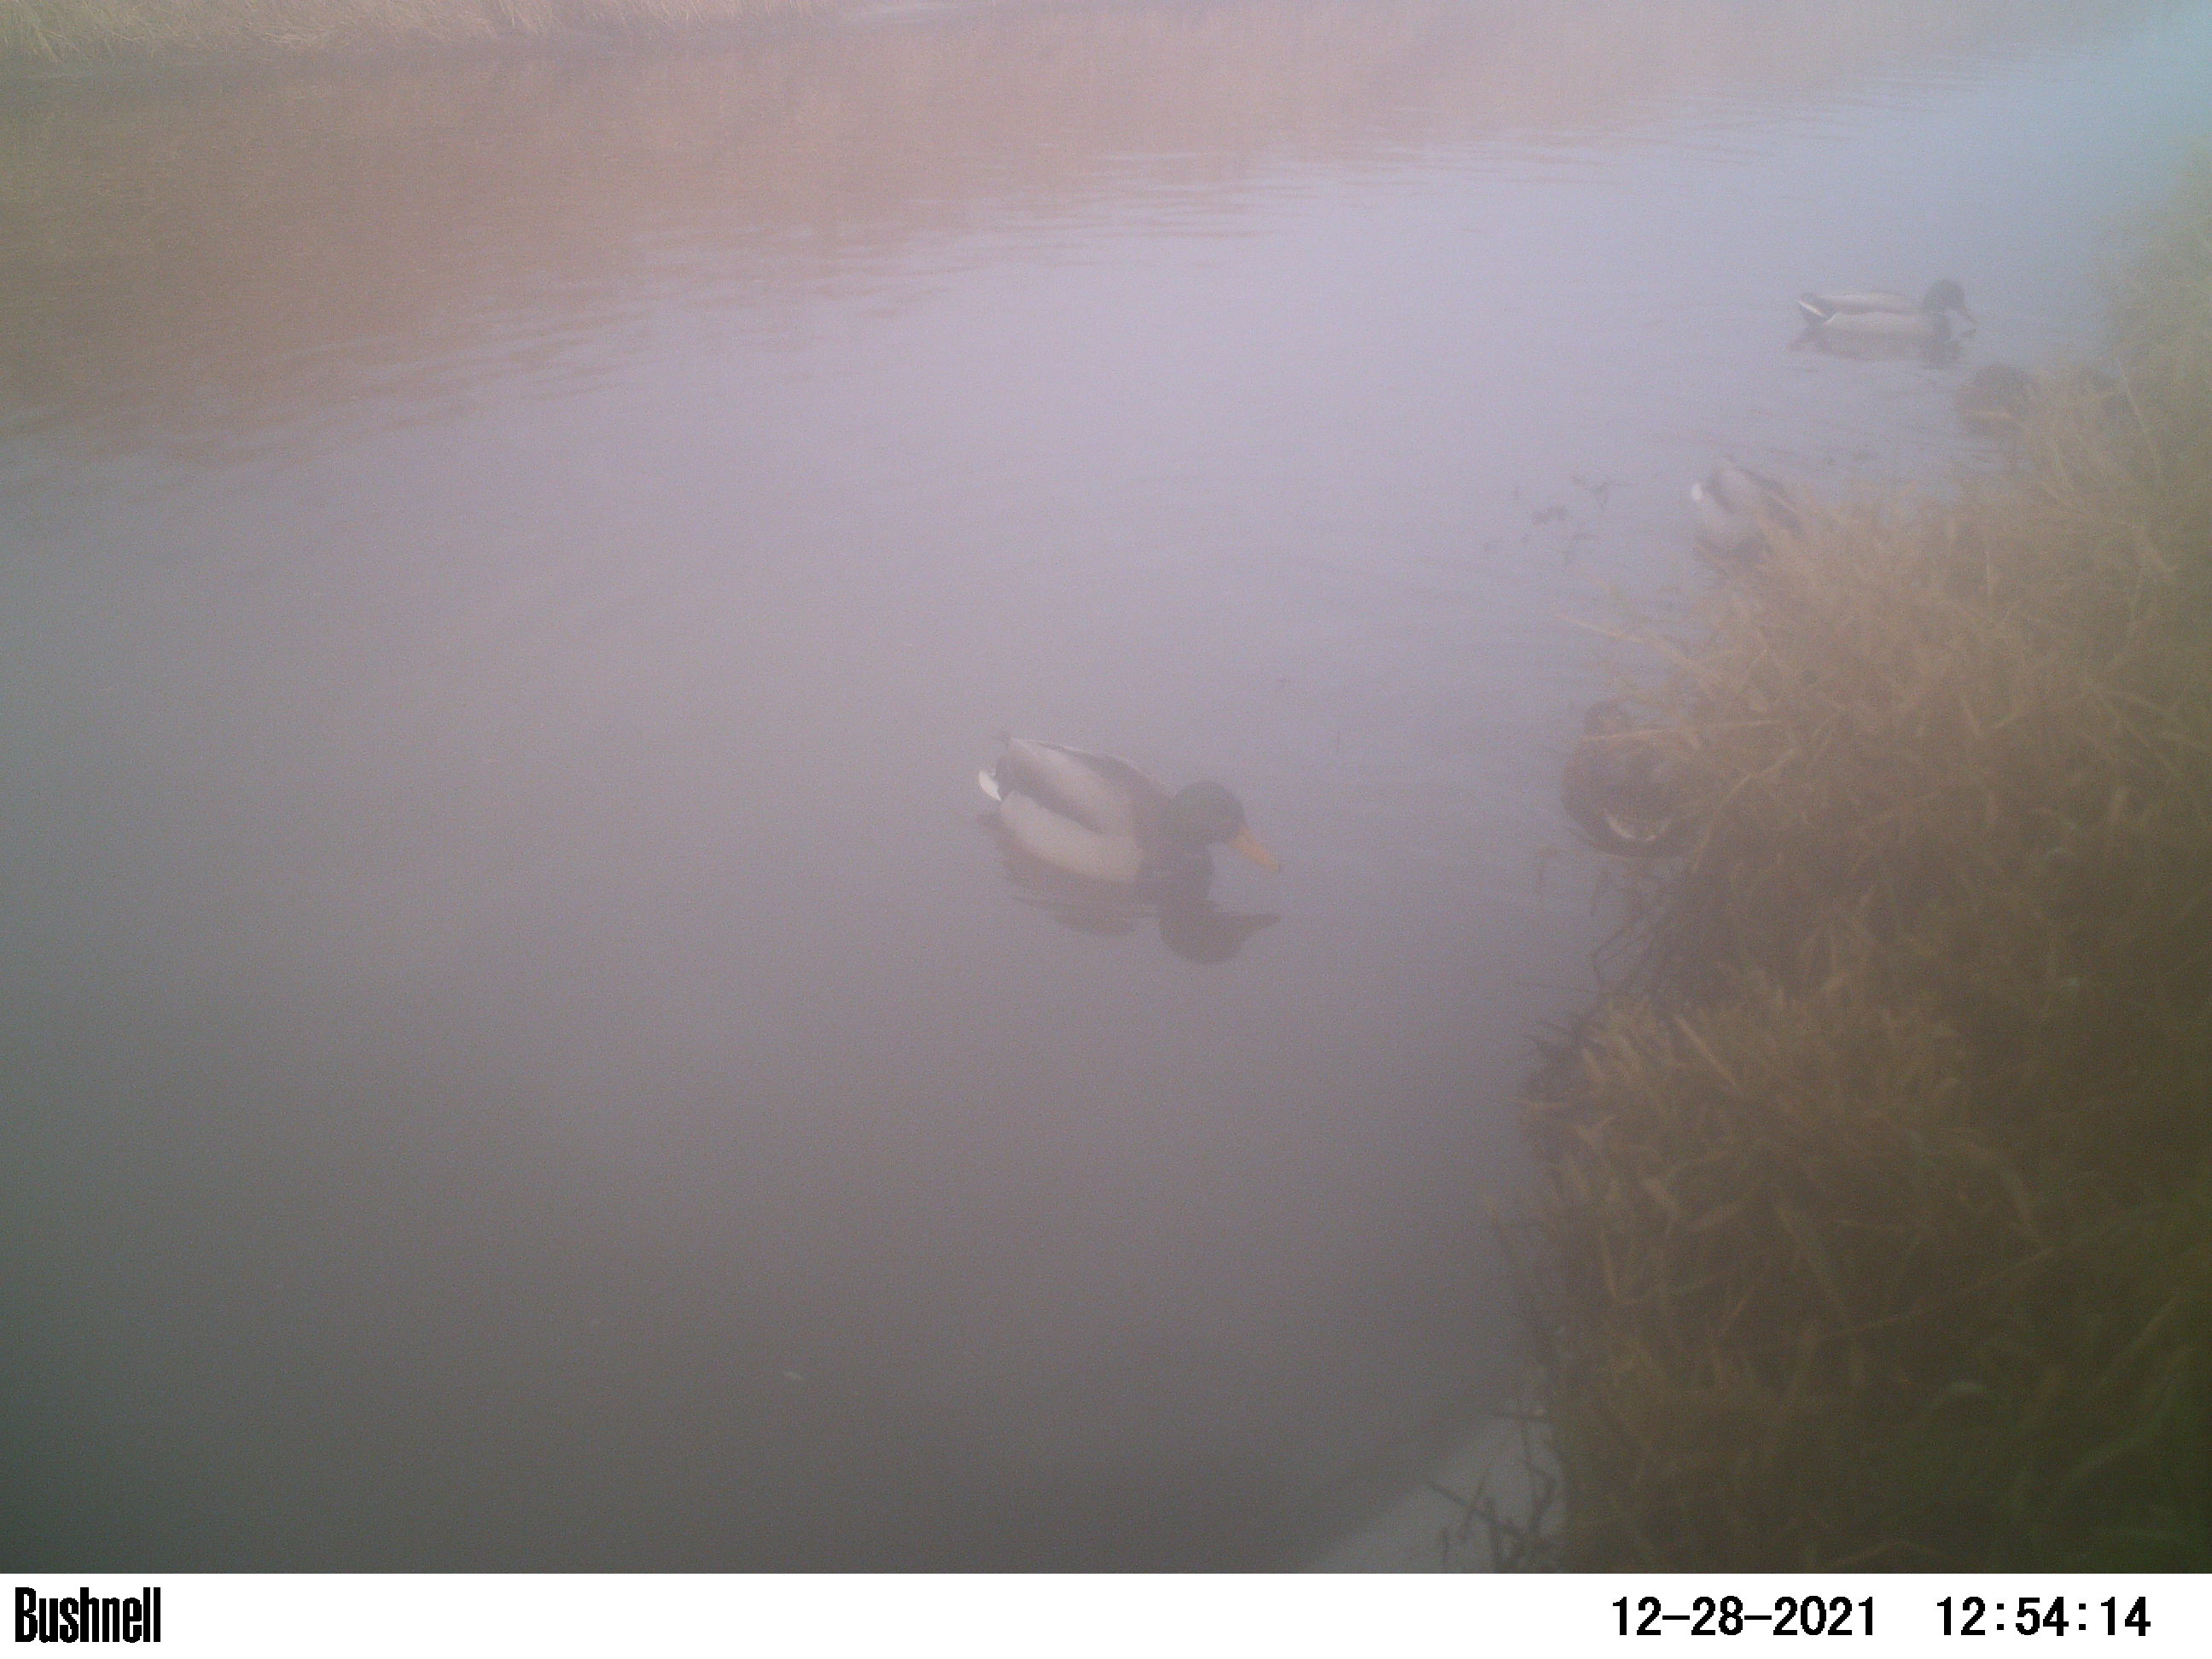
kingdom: Animalia
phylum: Chordata
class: Aves
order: Anseriformes
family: Anatidae
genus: Anas
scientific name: Anas
